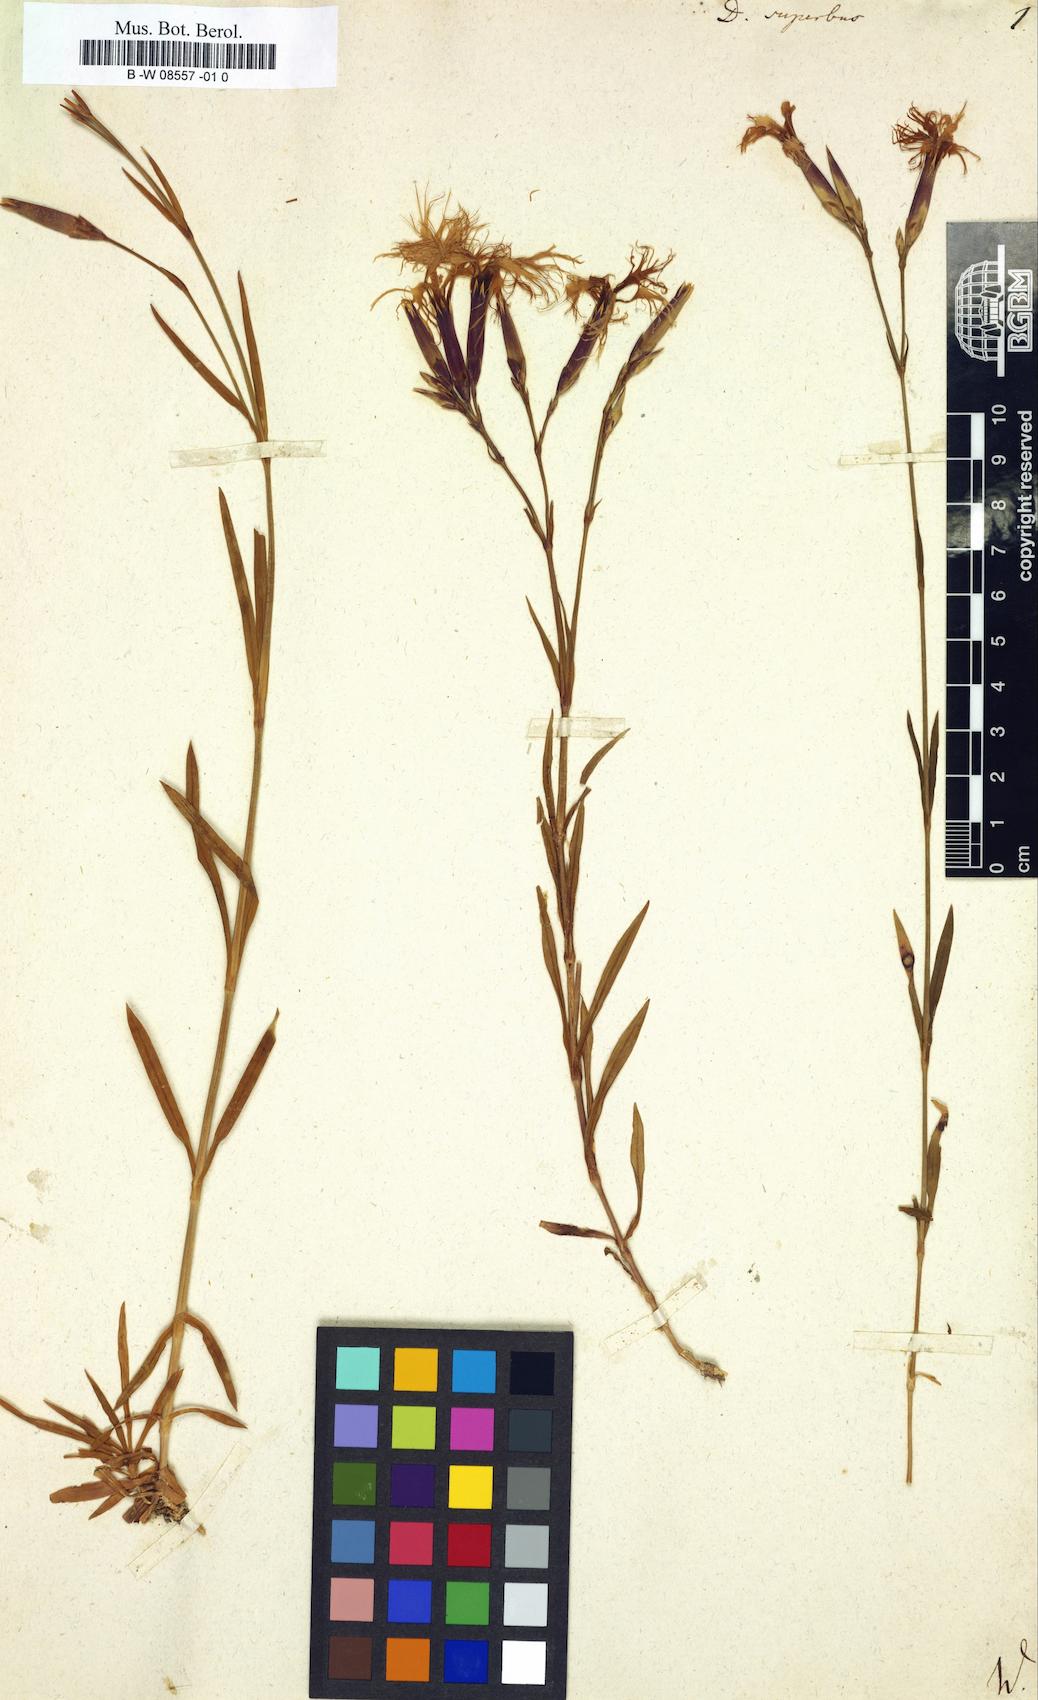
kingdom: Plantae
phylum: Tracheophyta
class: Magnoliopsida
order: Caryophyllales
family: Caryophyllaceae
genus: Dianthus
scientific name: Dianthus superbus
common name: Fringed pink
